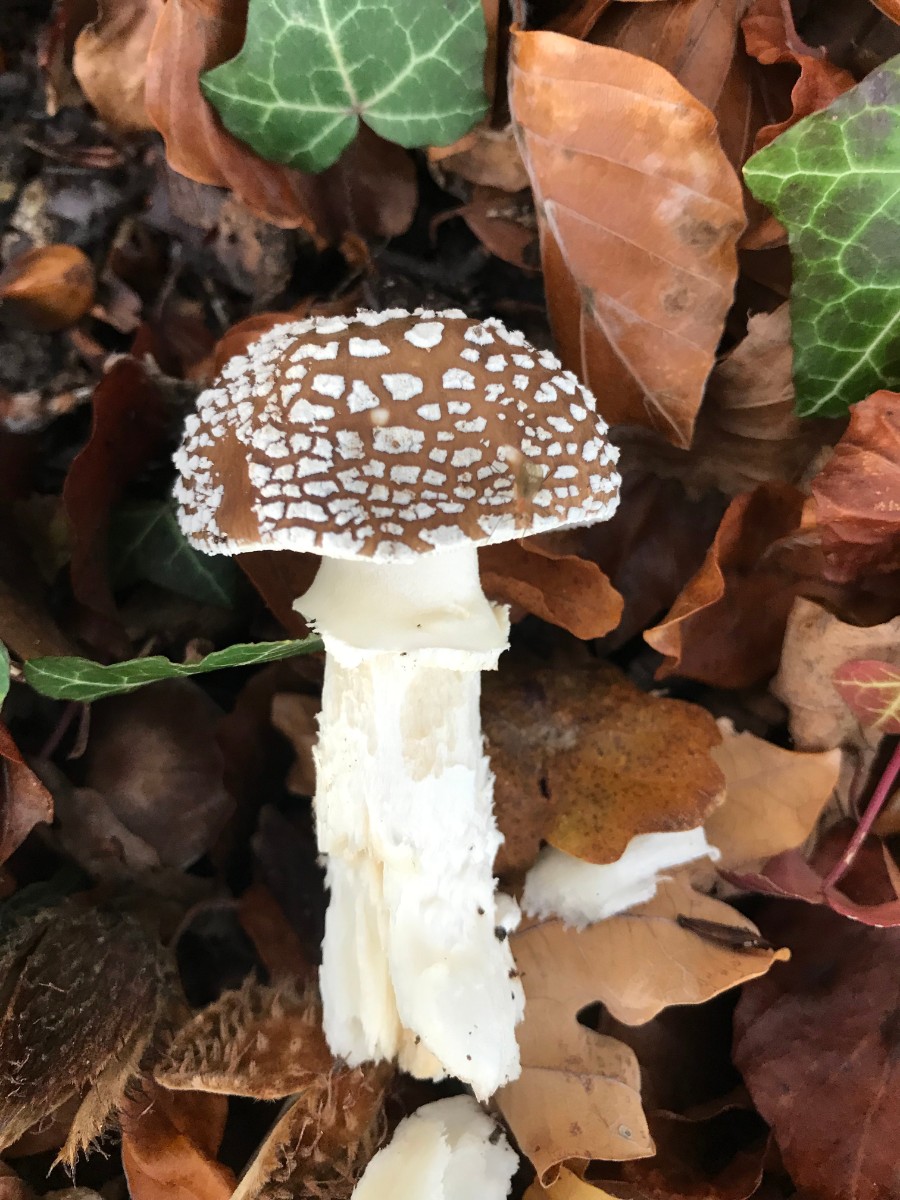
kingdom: Fungi
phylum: Basidiomycota
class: Agaricomycetes
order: Agaricales
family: Amanitaceae
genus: Amanita
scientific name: Amanita pantherina
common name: panter-fluesvamp
